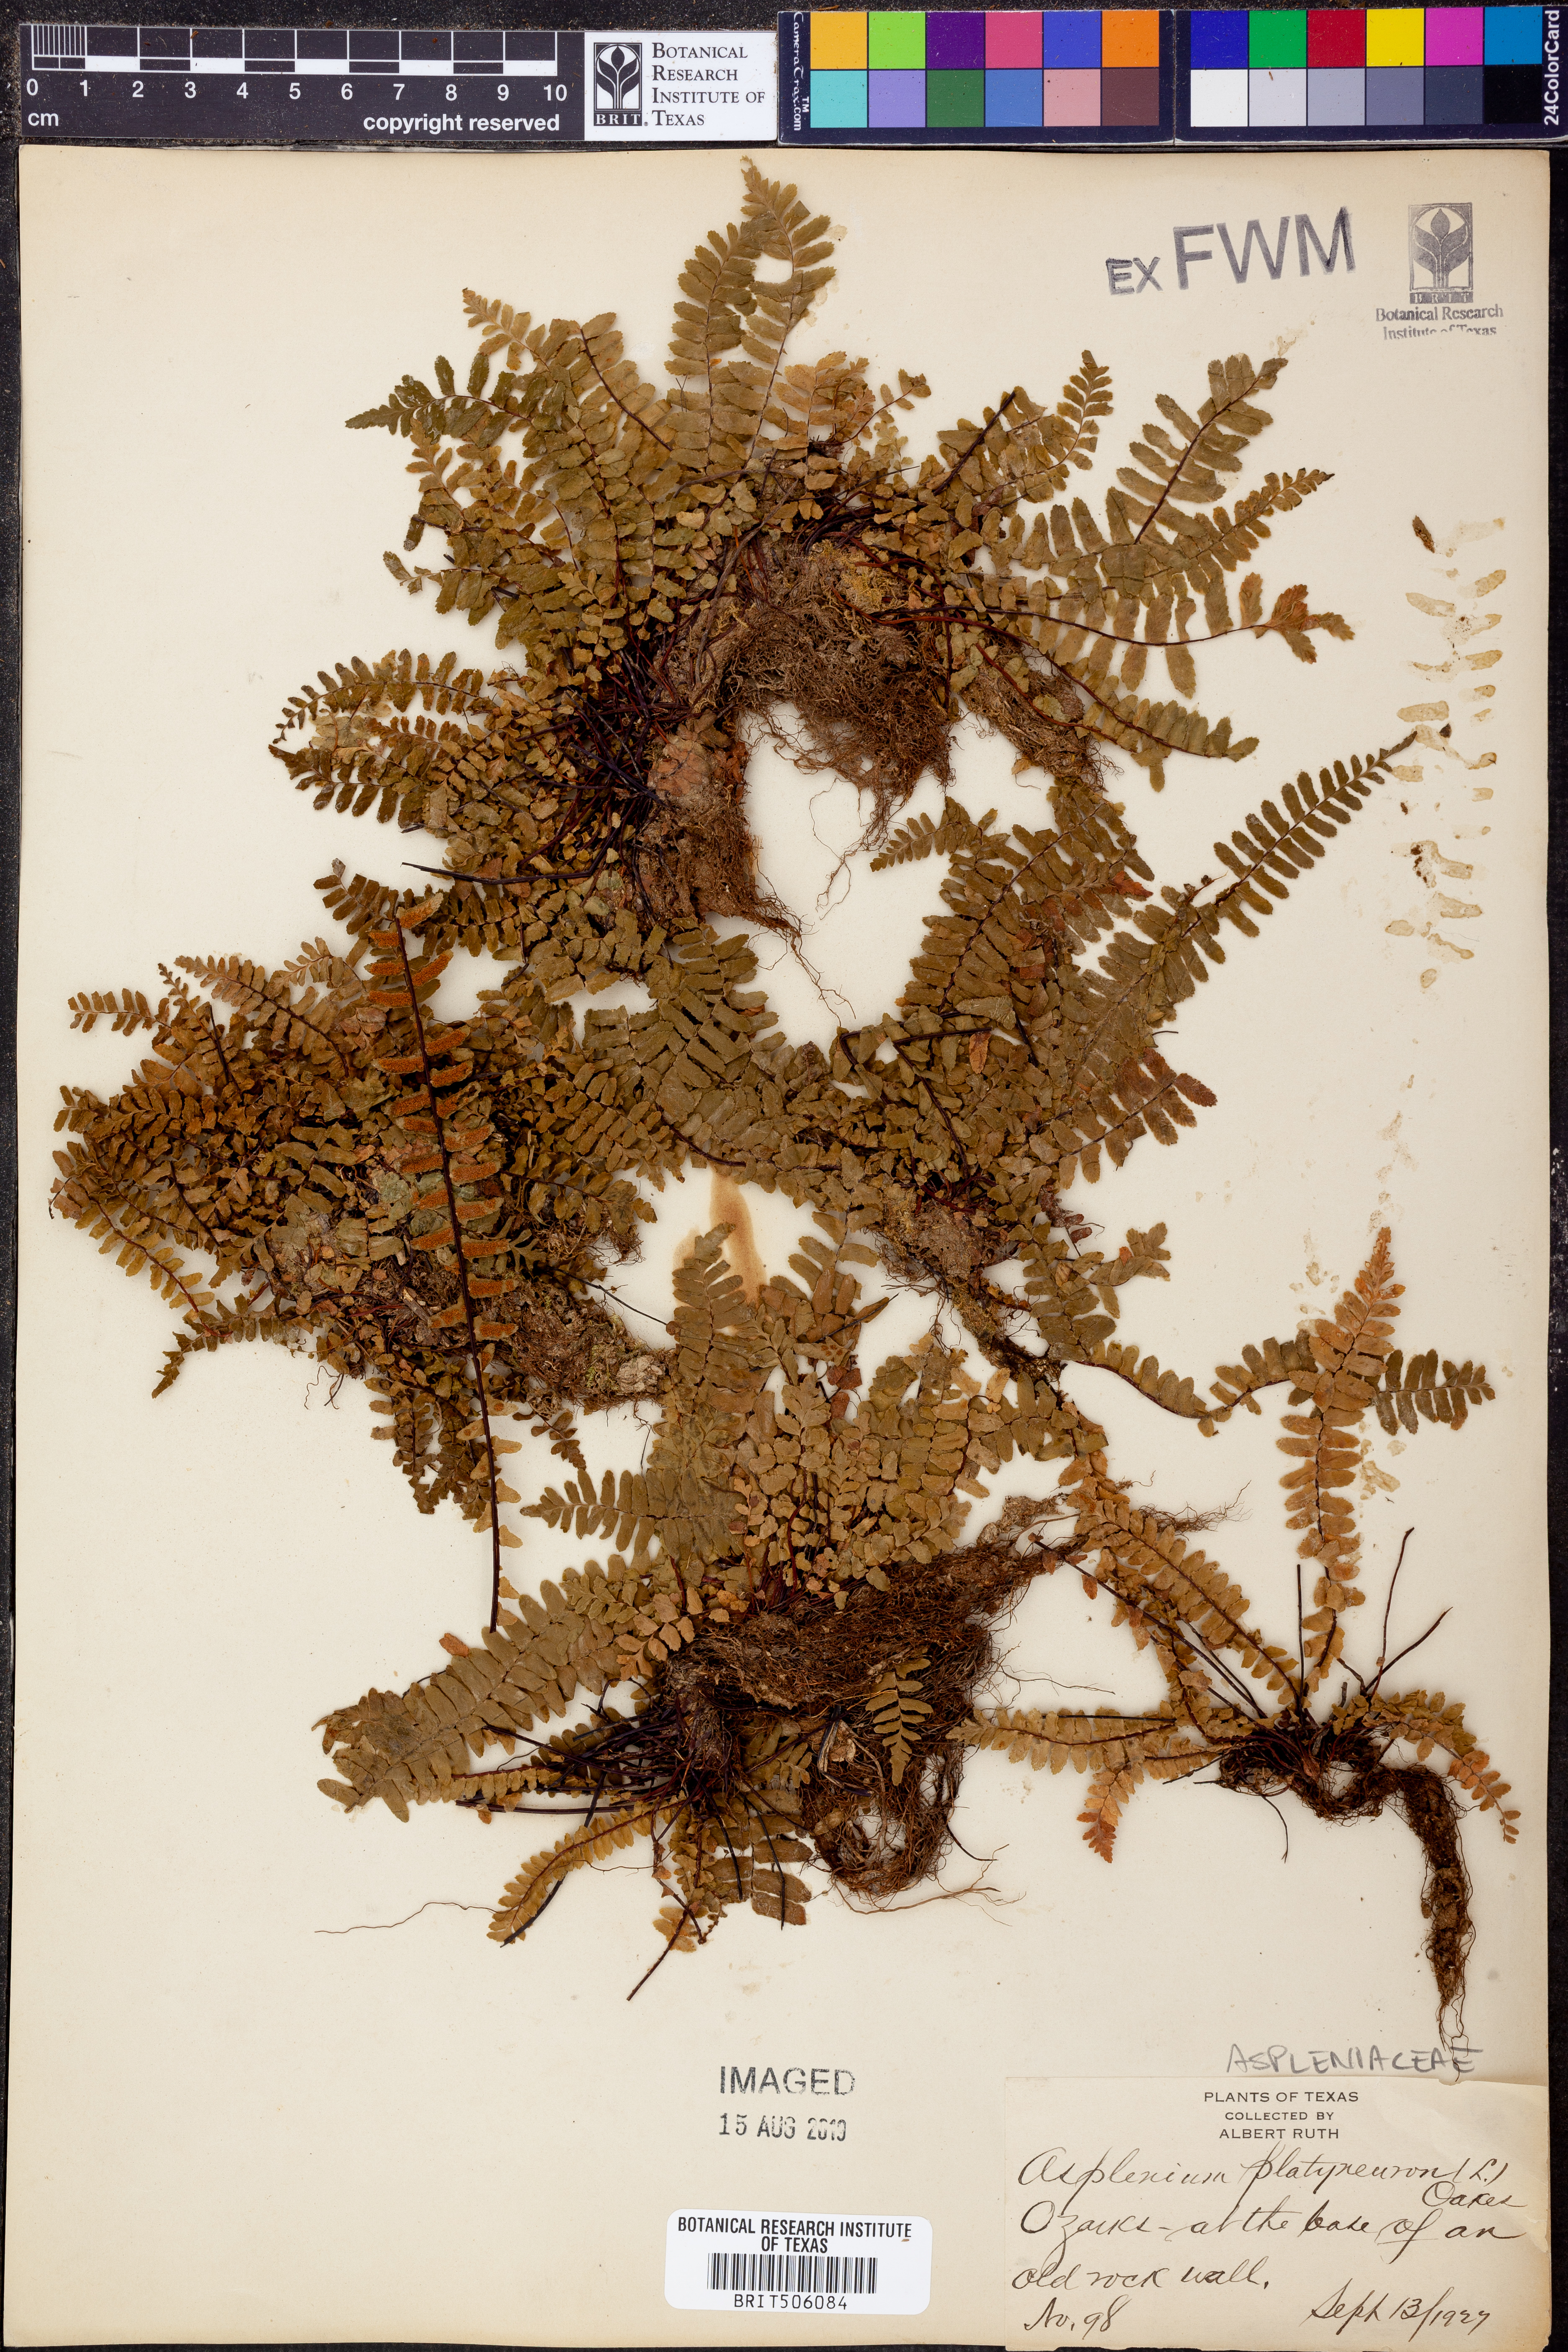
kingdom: Plantae
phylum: Tracheophyta
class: Polypodiopsida
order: Polypodiales
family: Aspleniaceae
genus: Asplenium
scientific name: Asplenium platyneuron
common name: Ebony spleenwort
